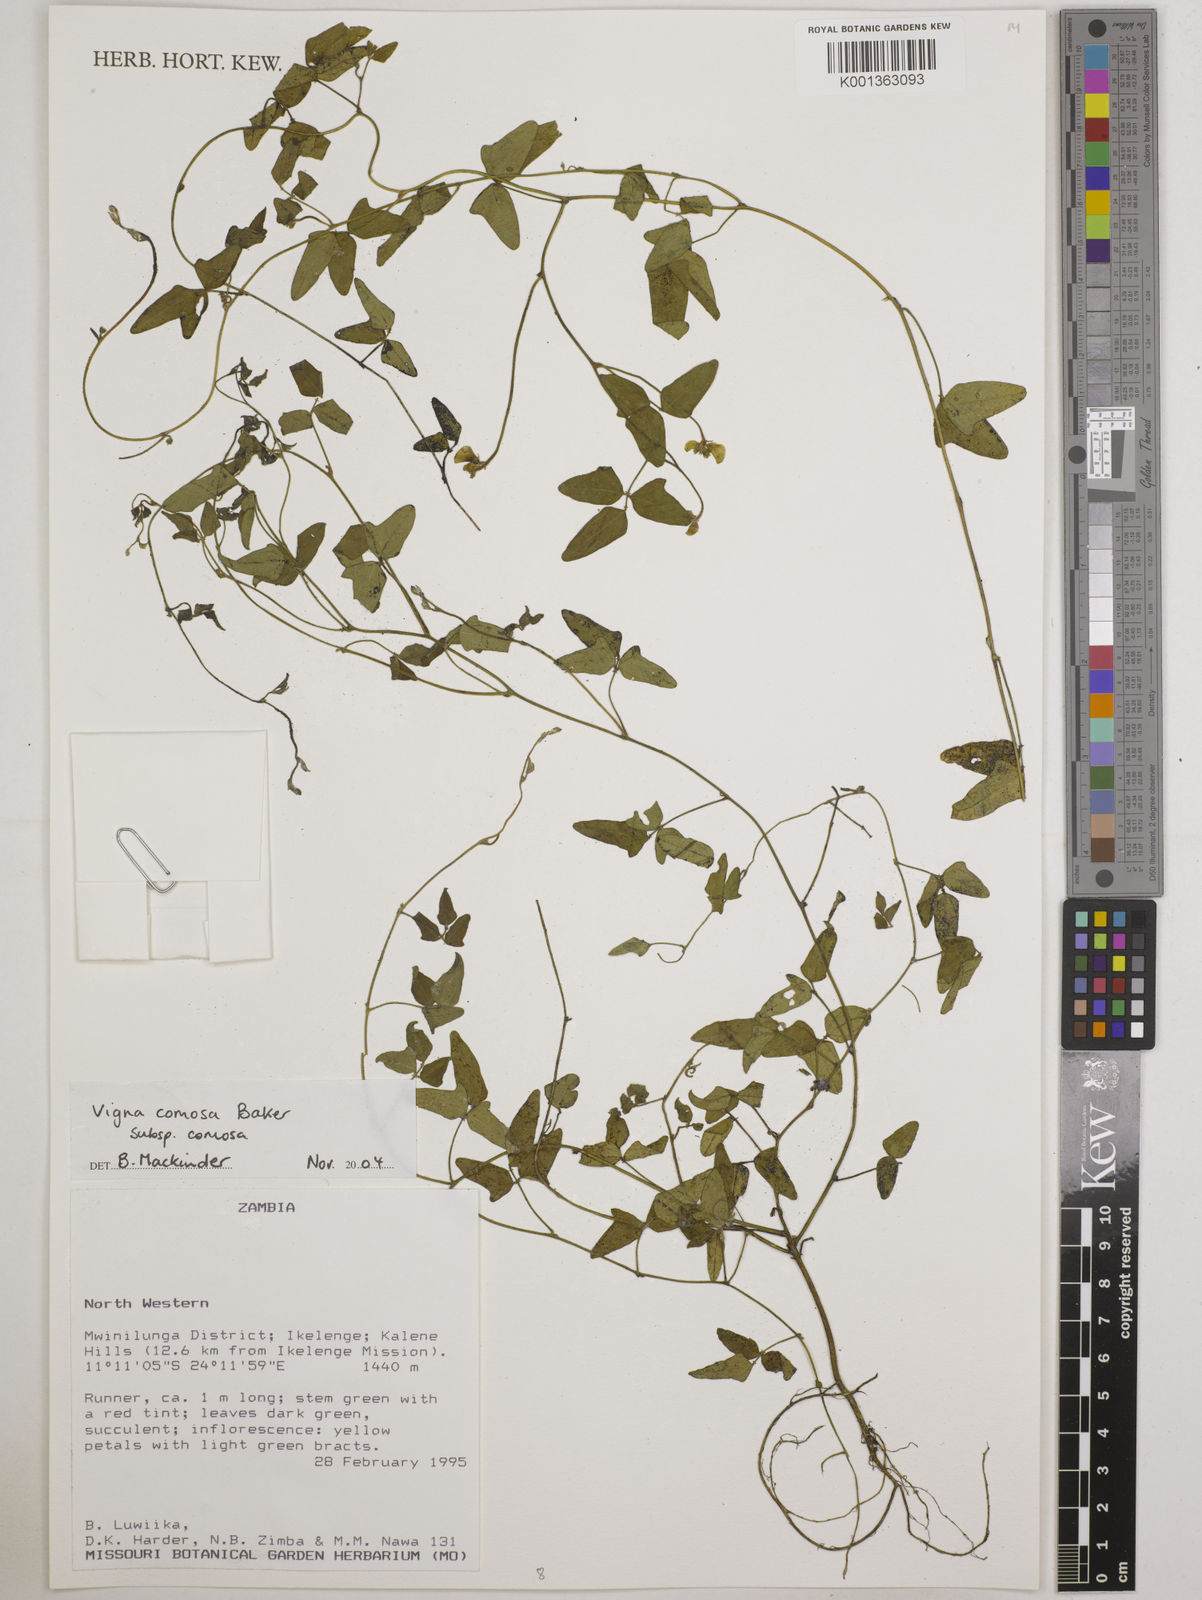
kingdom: Plantae
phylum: Tracheophyta
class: Magnoliopsida
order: Fabales
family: Fabaceae
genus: Vigna
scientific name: Vigna comosa
